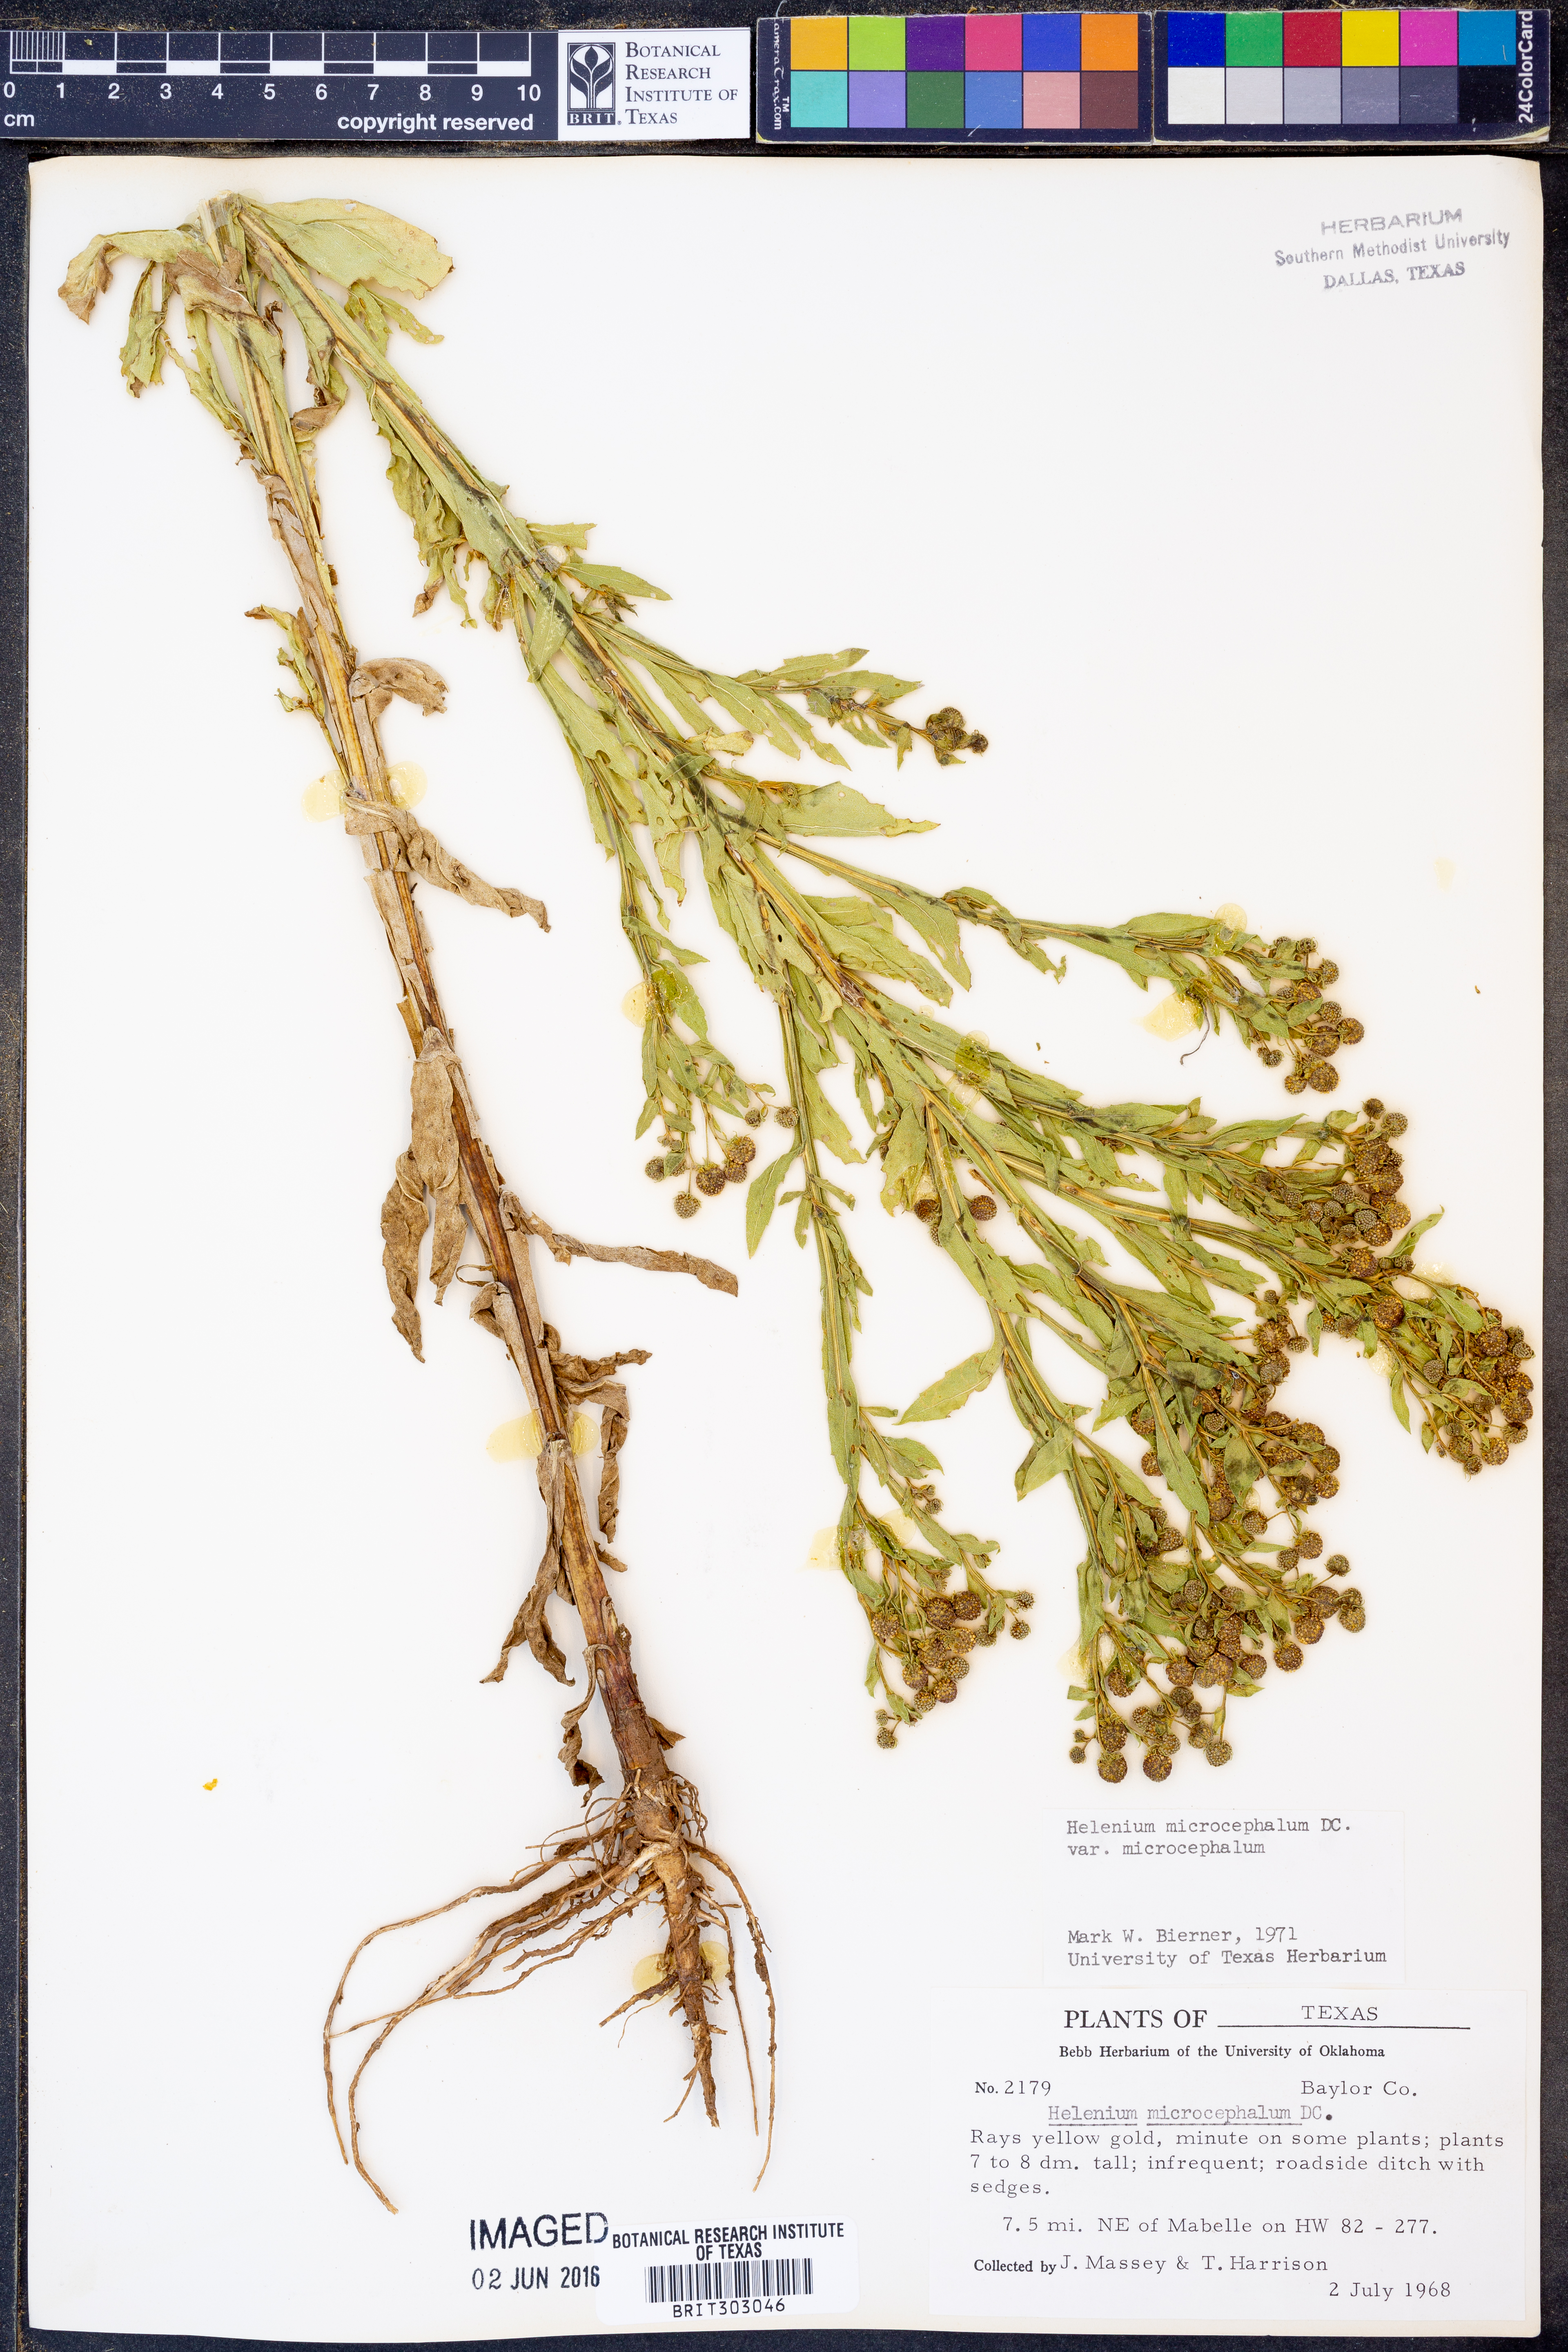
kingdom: Plantae
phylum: Tracheophyta
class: Magnoliopsida
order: Asterales
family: Asteraceae
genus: Helenium
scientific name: Helenium microcephalum
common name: Smallhead sneezeweed
